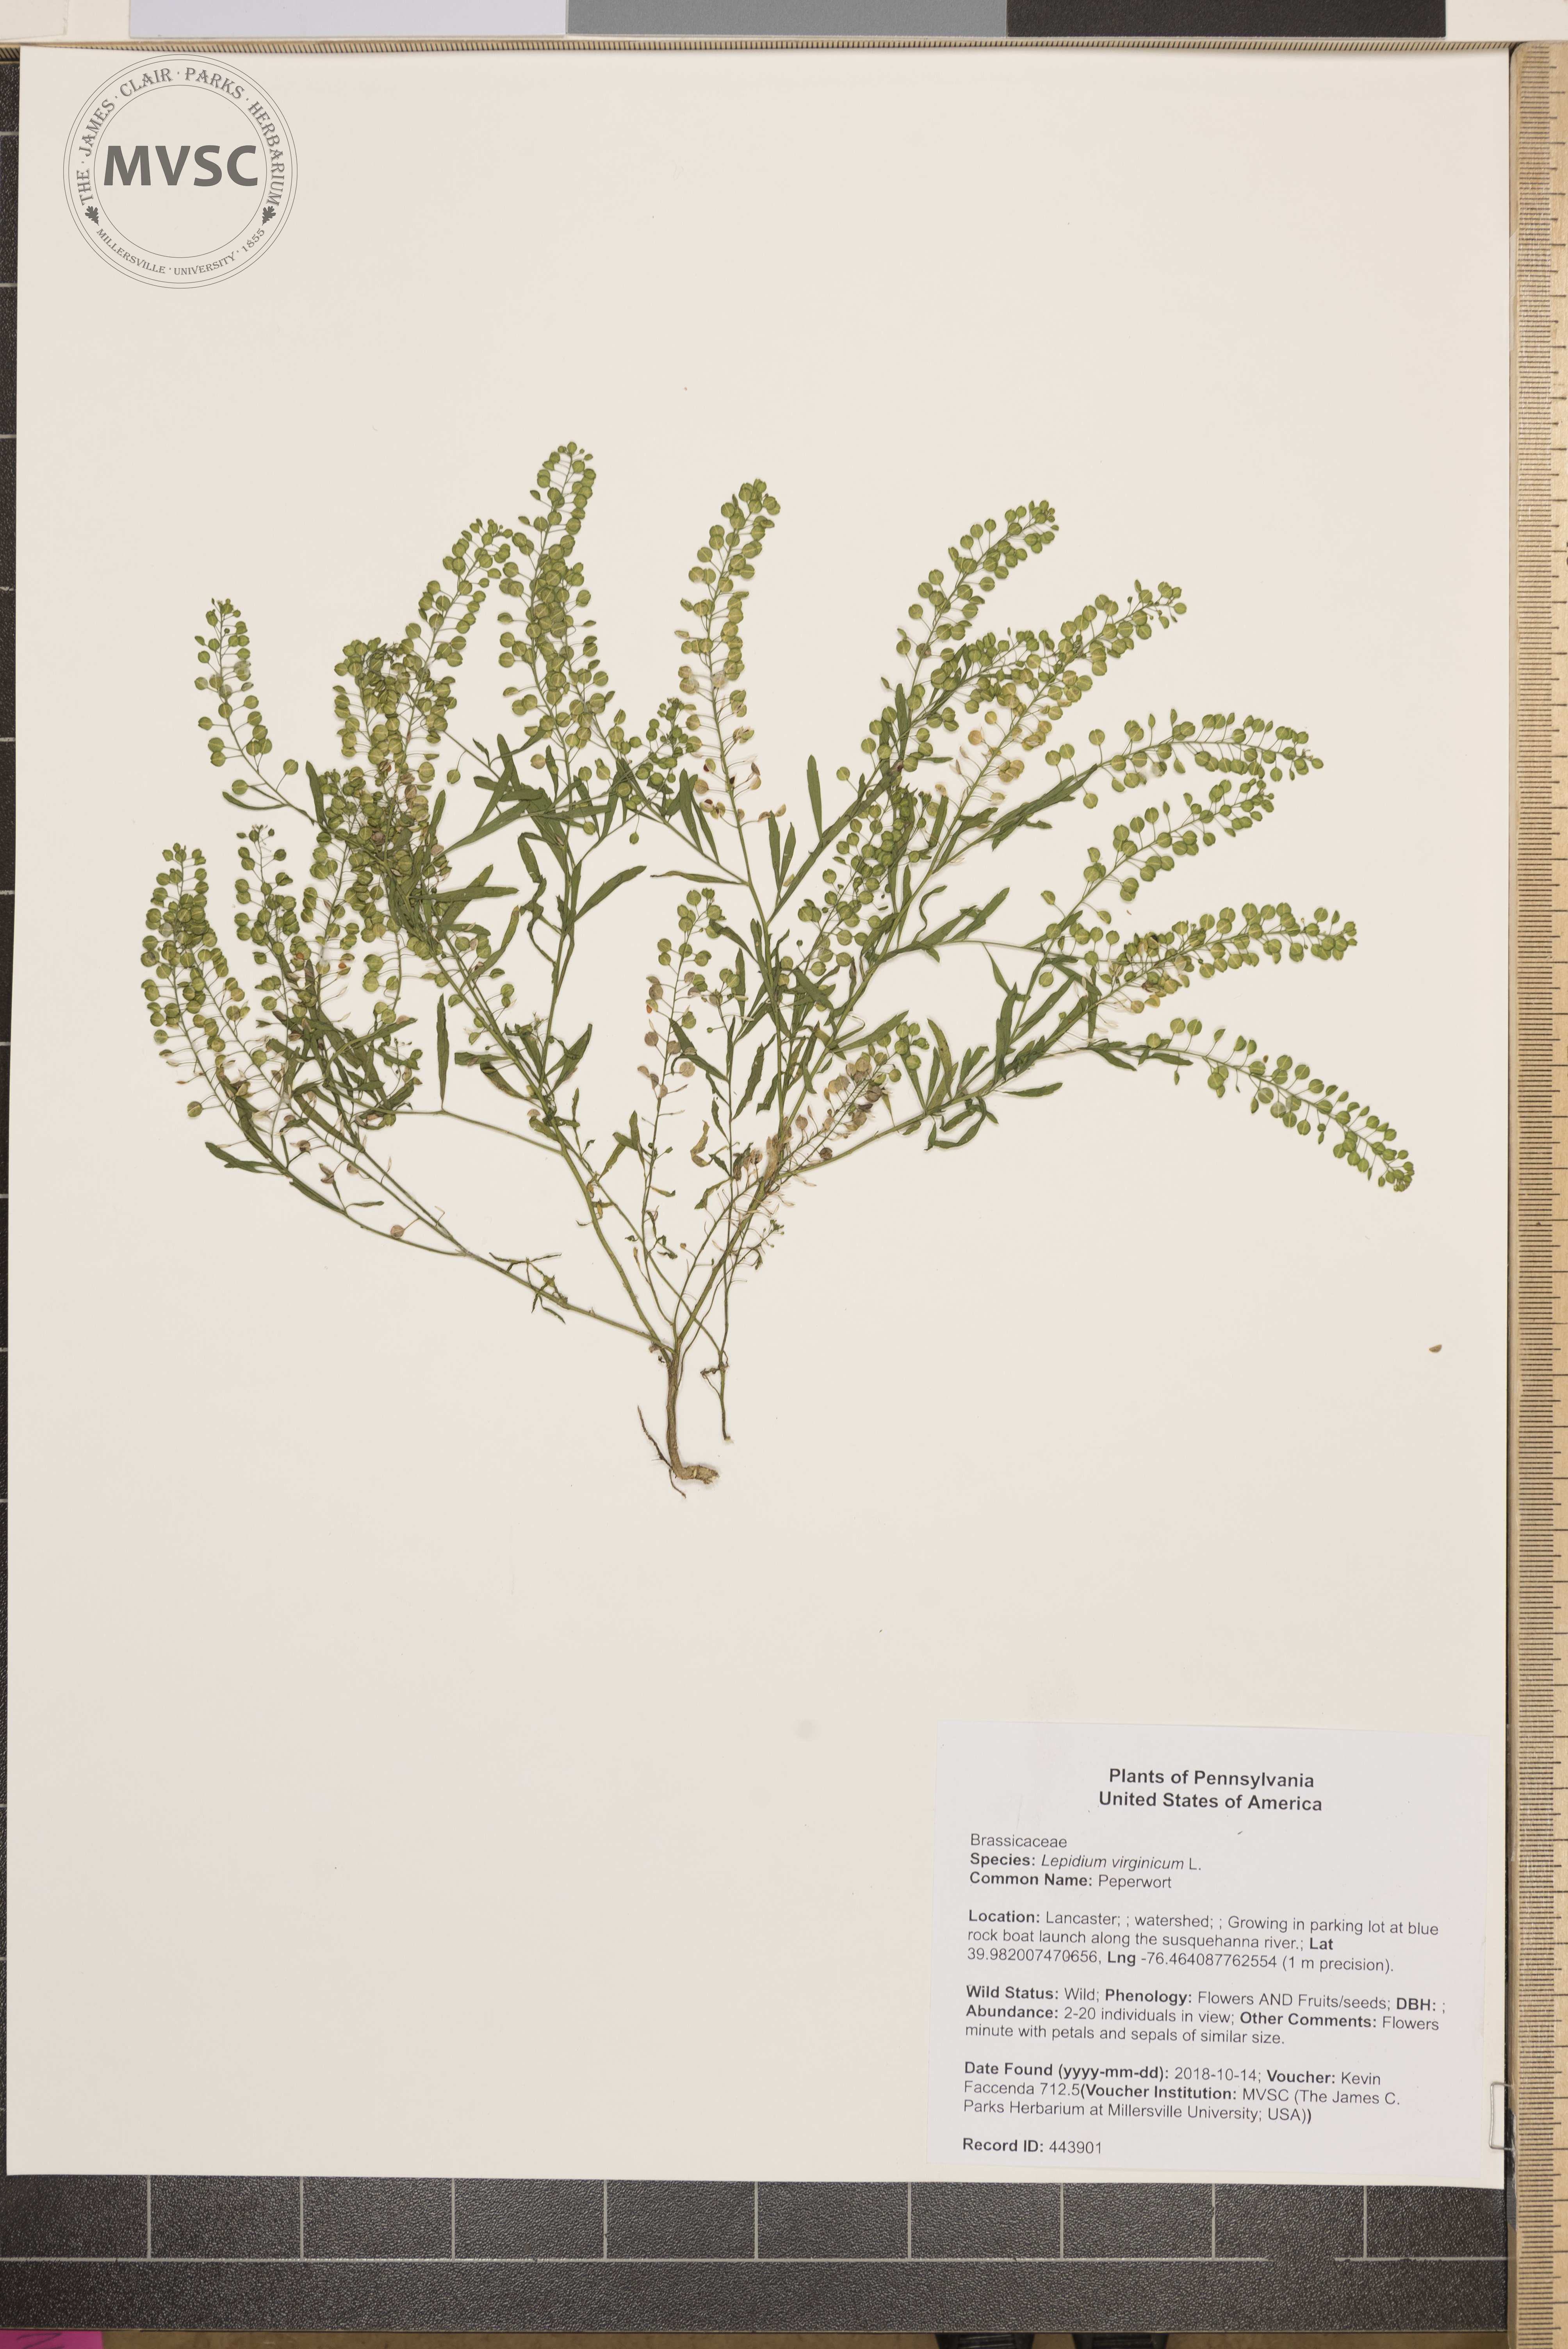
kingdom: Plantae
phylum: Tracheophyta
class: Magnoliopsida
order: Brassicales
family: Brassicaceae
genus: Lepidium
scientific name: Lepidium virginicum
